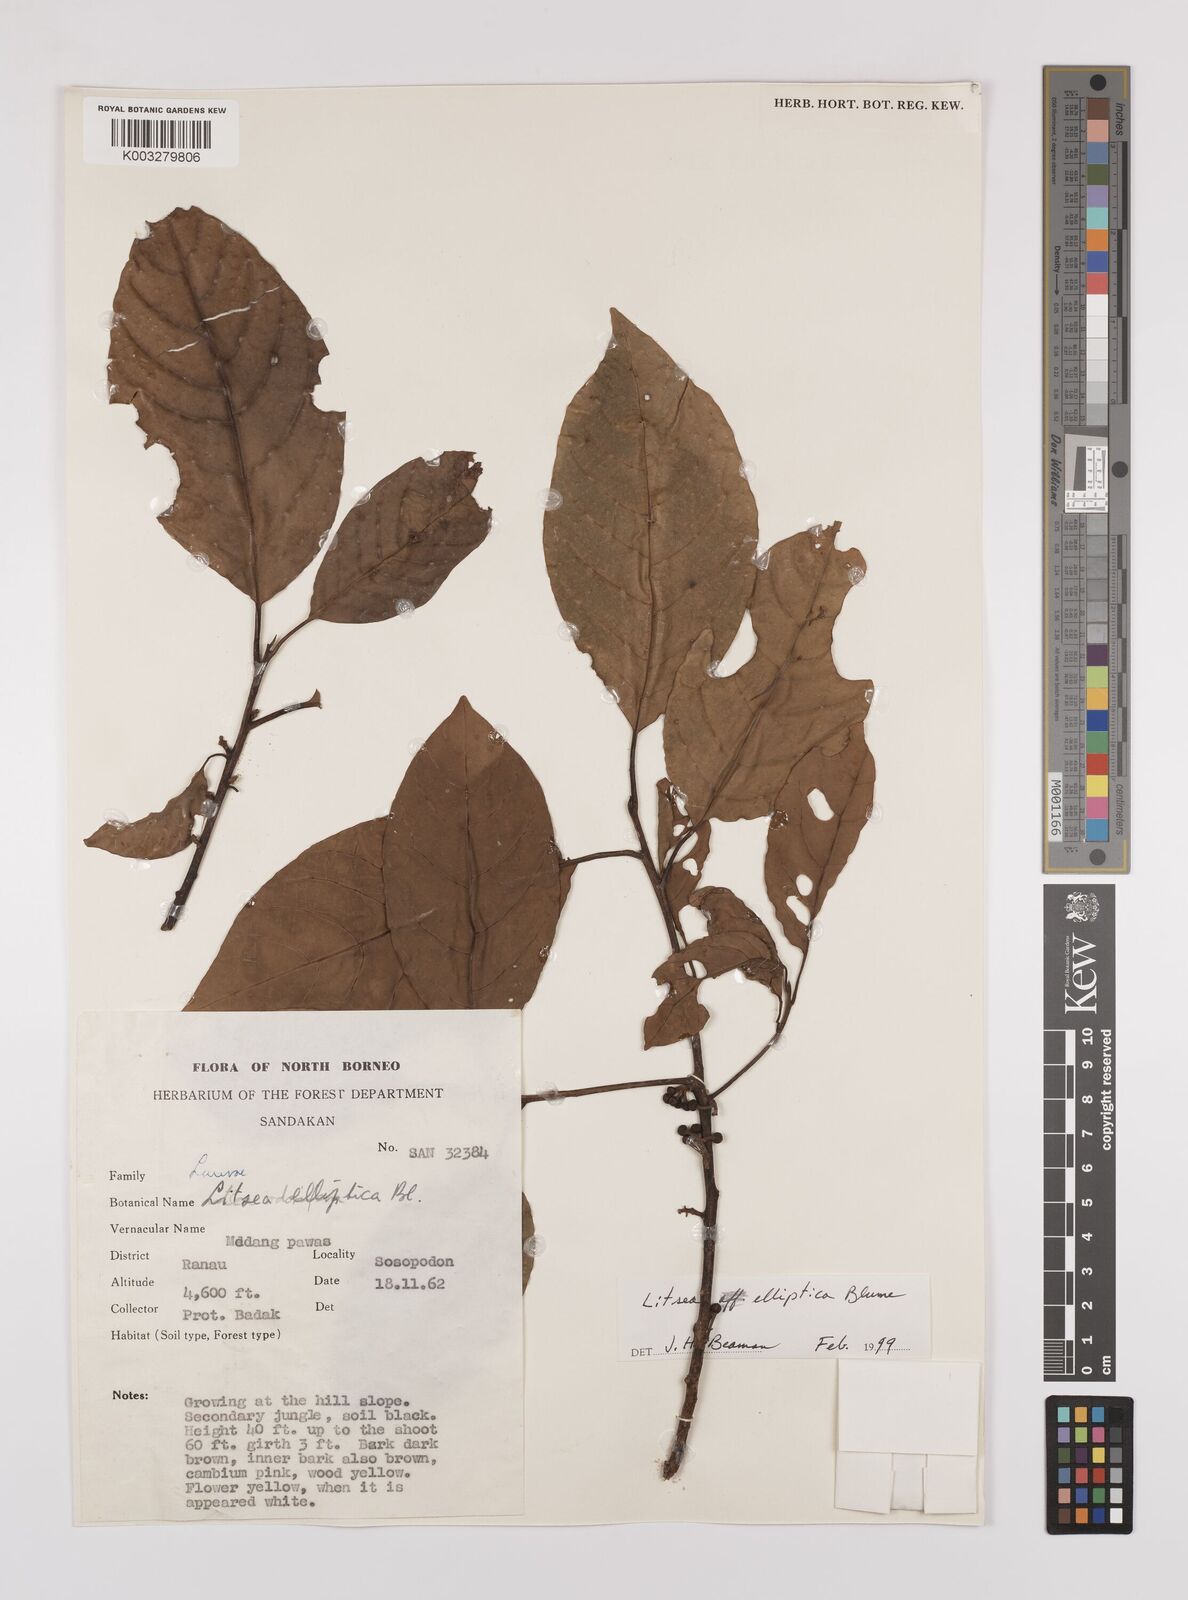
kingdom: Plantae
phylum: Tracheophyta
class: Magnoliopsida
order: Laurales
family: Lauraceae
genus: Litsea
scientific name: Litsea elliptica
